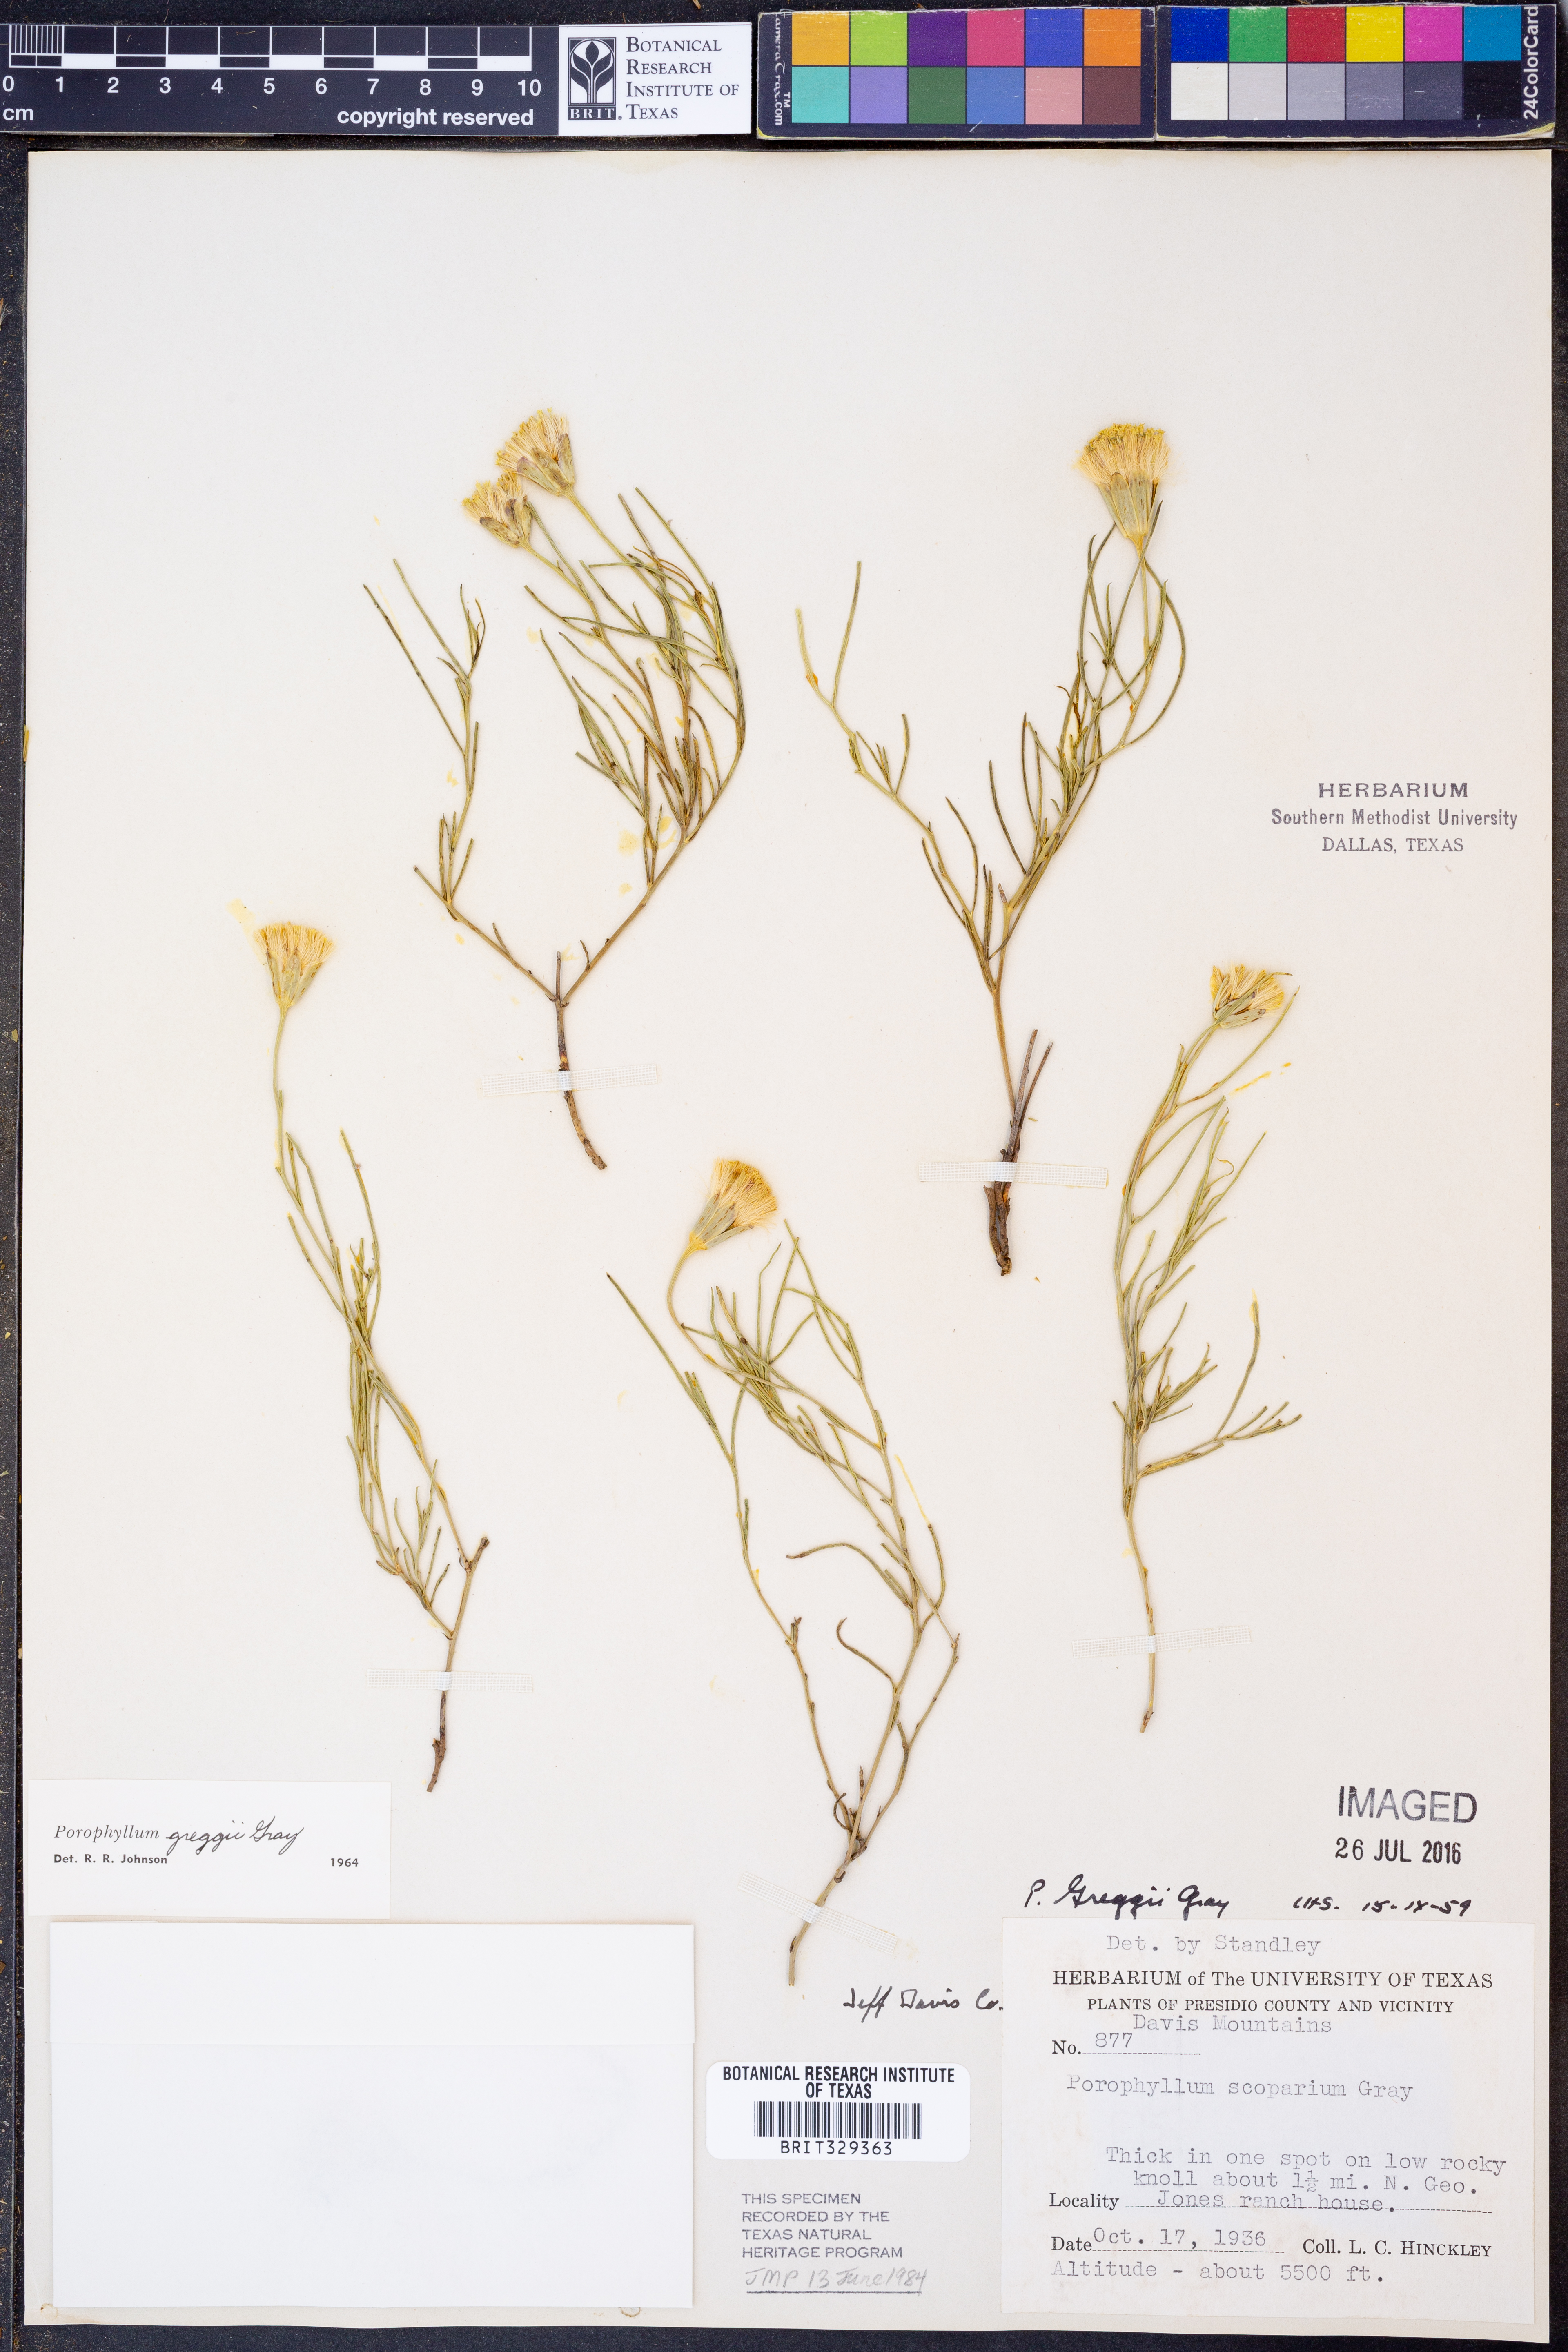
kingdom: Plantae
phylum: Tracheophyta
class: Magnoliopsida
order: Asterales
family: Asteraceae
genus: Porophyllum
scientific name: Porophyllum greggii
